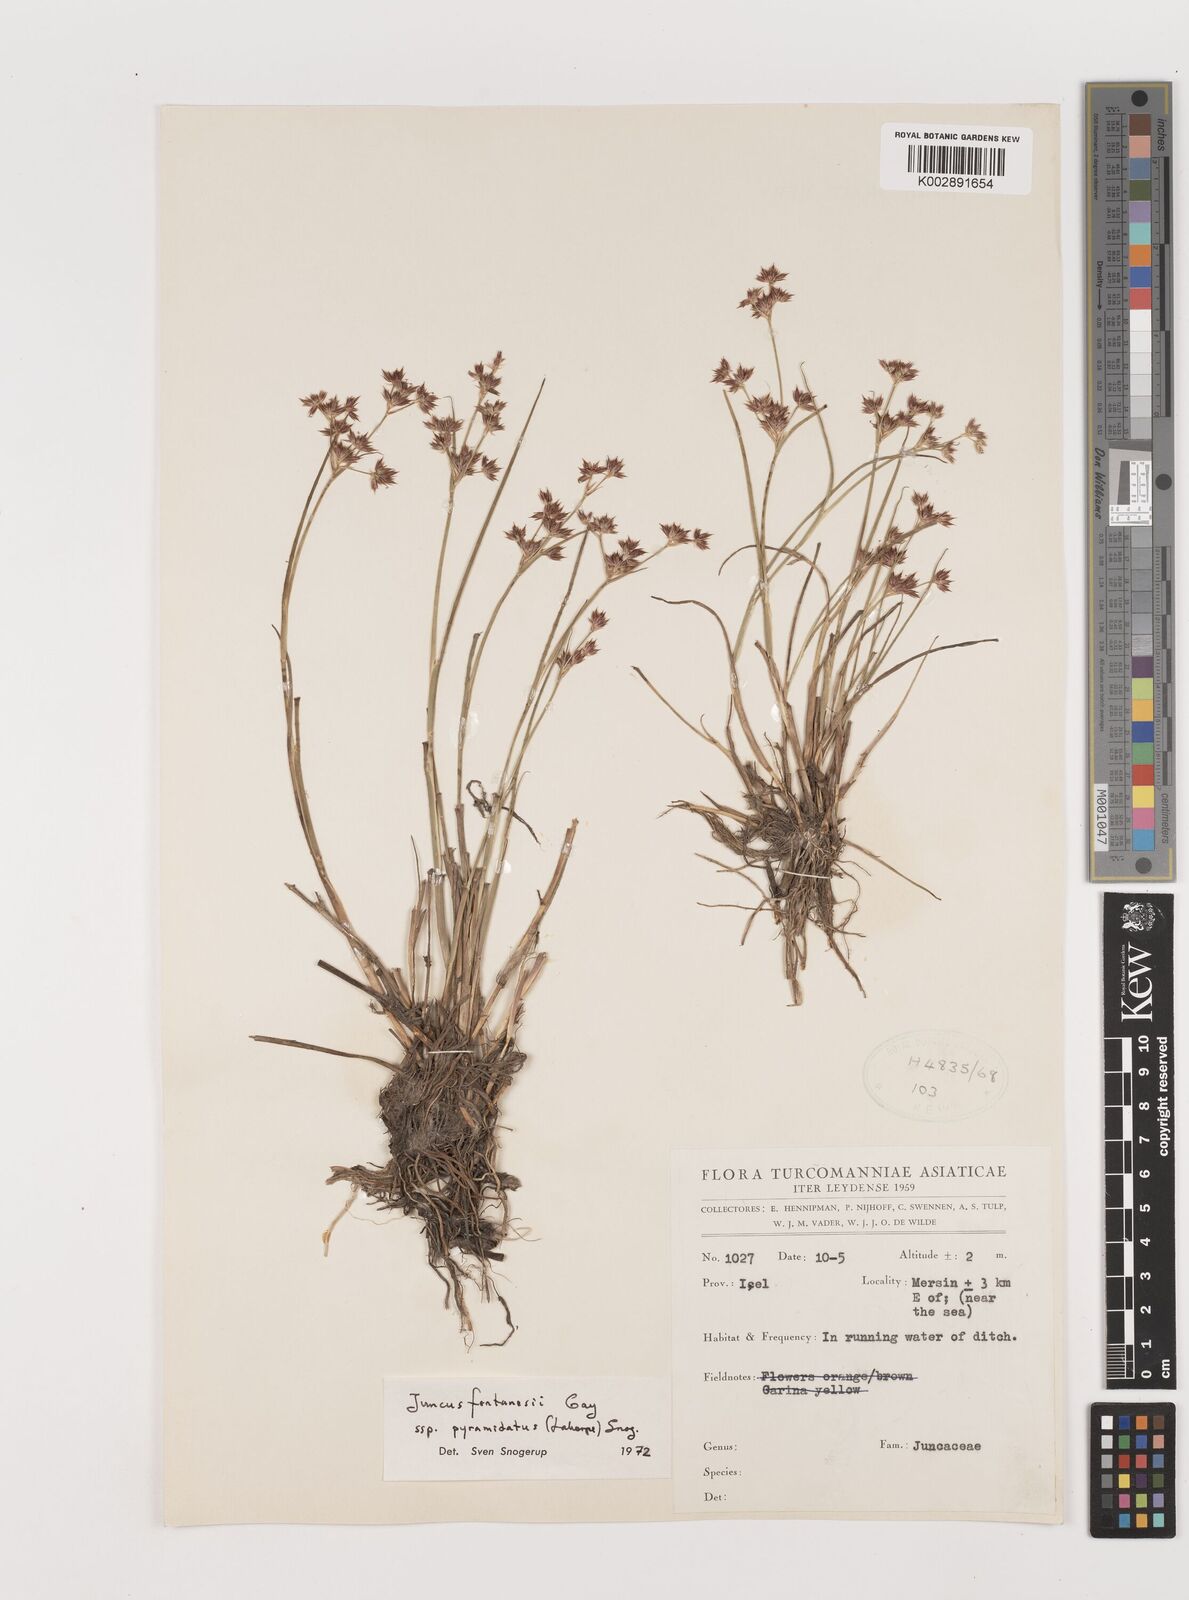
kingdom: Plantae
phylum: Tracheophyta
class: Liliopsida
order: Poales
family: Juncaceae
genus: Juncus
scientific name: Juncus fontanesii
